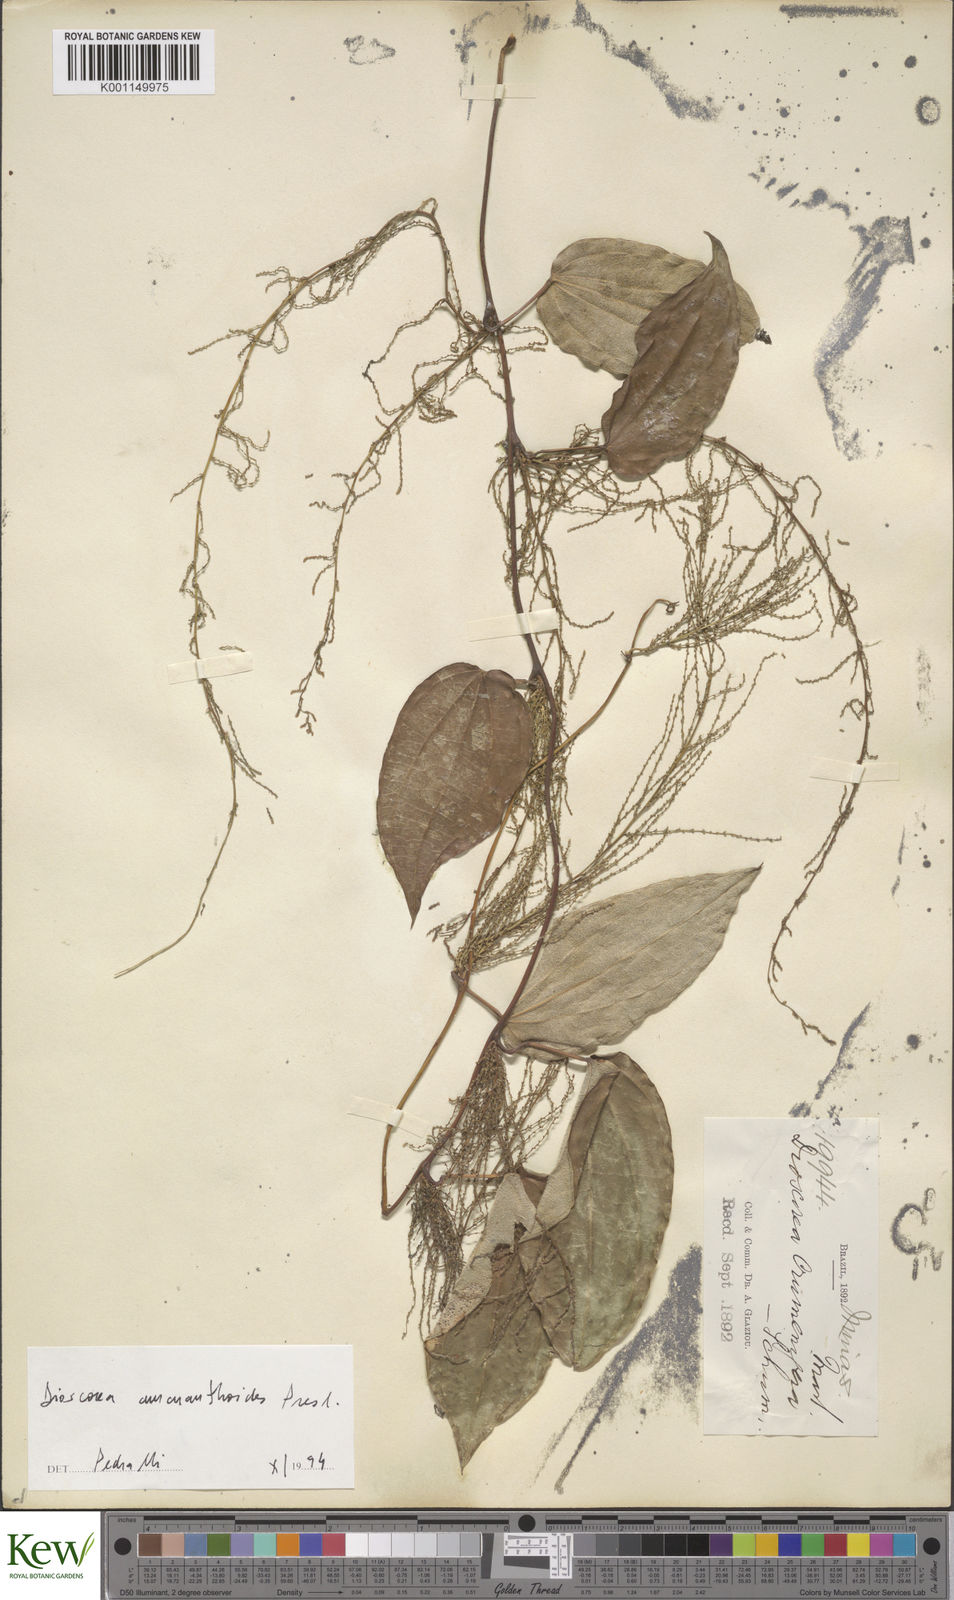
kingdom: Plantae
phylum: Tracheophyta
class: Liliopsida
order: Dioscoreales
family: Dioscoreaceae
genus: Dioscorea
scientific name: Dioscorea
